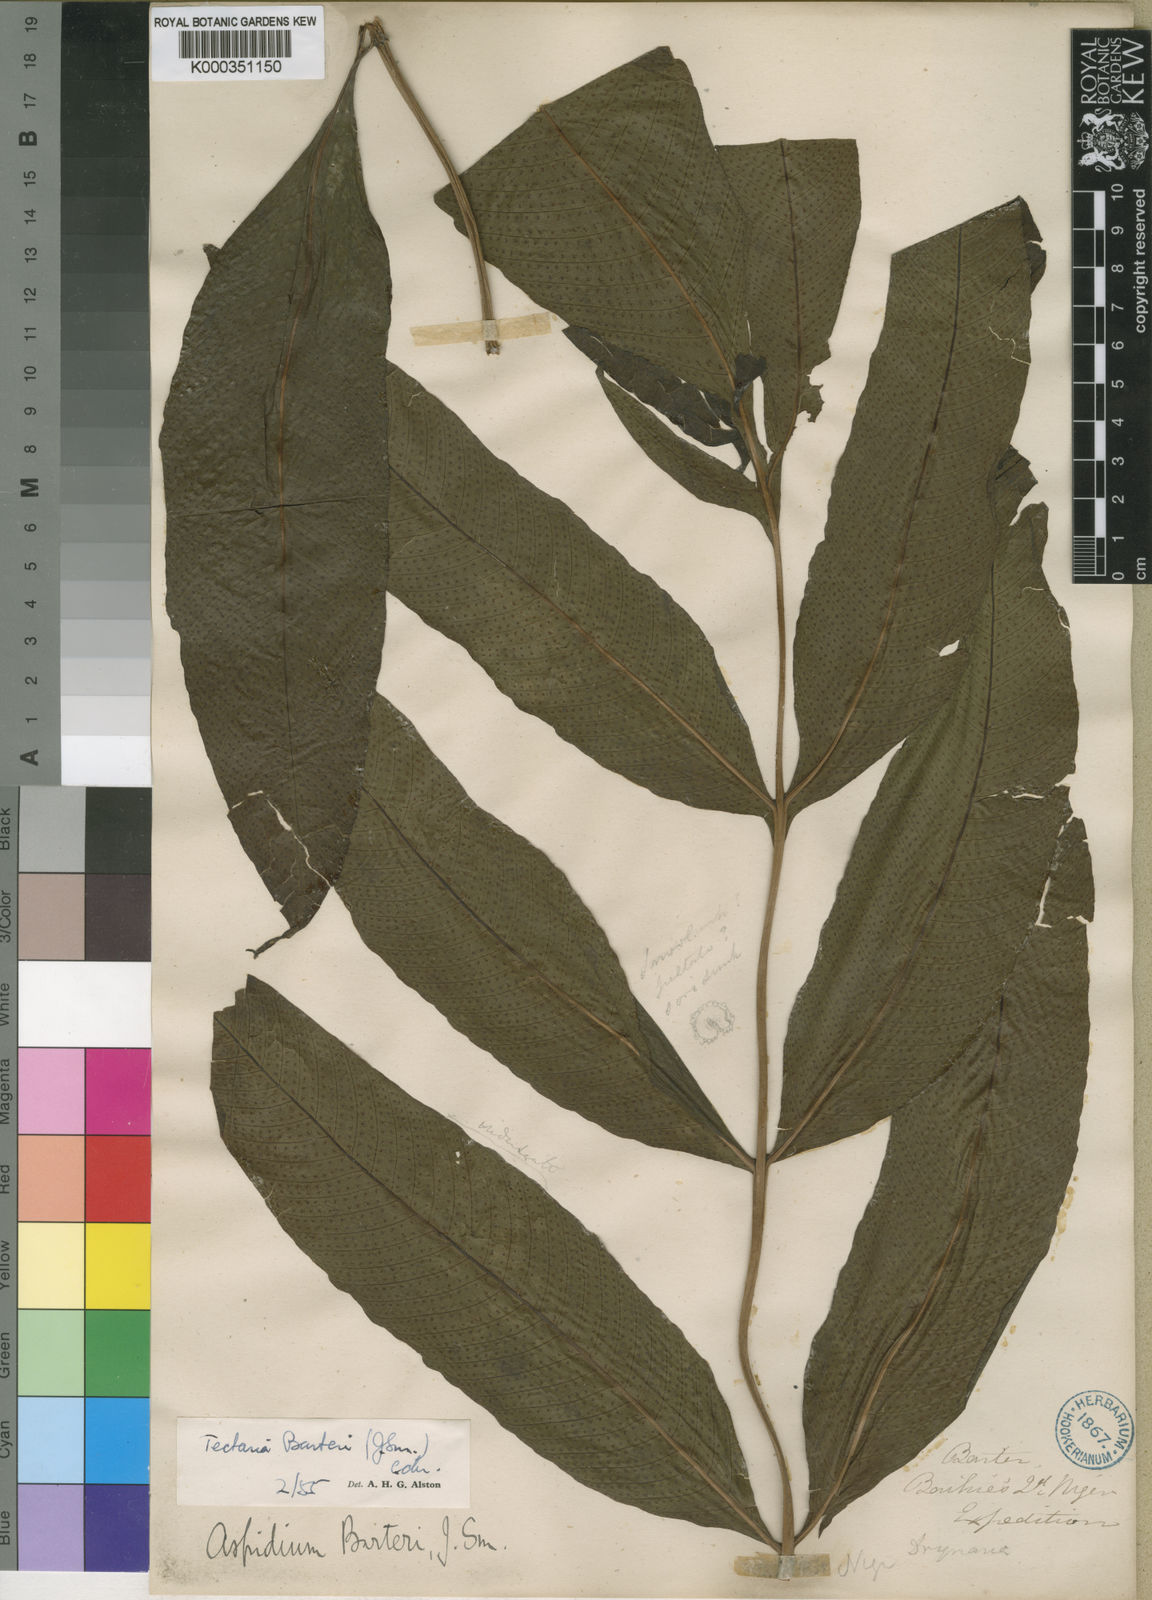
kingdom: Plantae
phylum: Tracheophyta
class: Polypodiopsida
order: Polypodiales
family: Tectariaceae
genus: Tectaria
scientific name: Tectaria barteri
